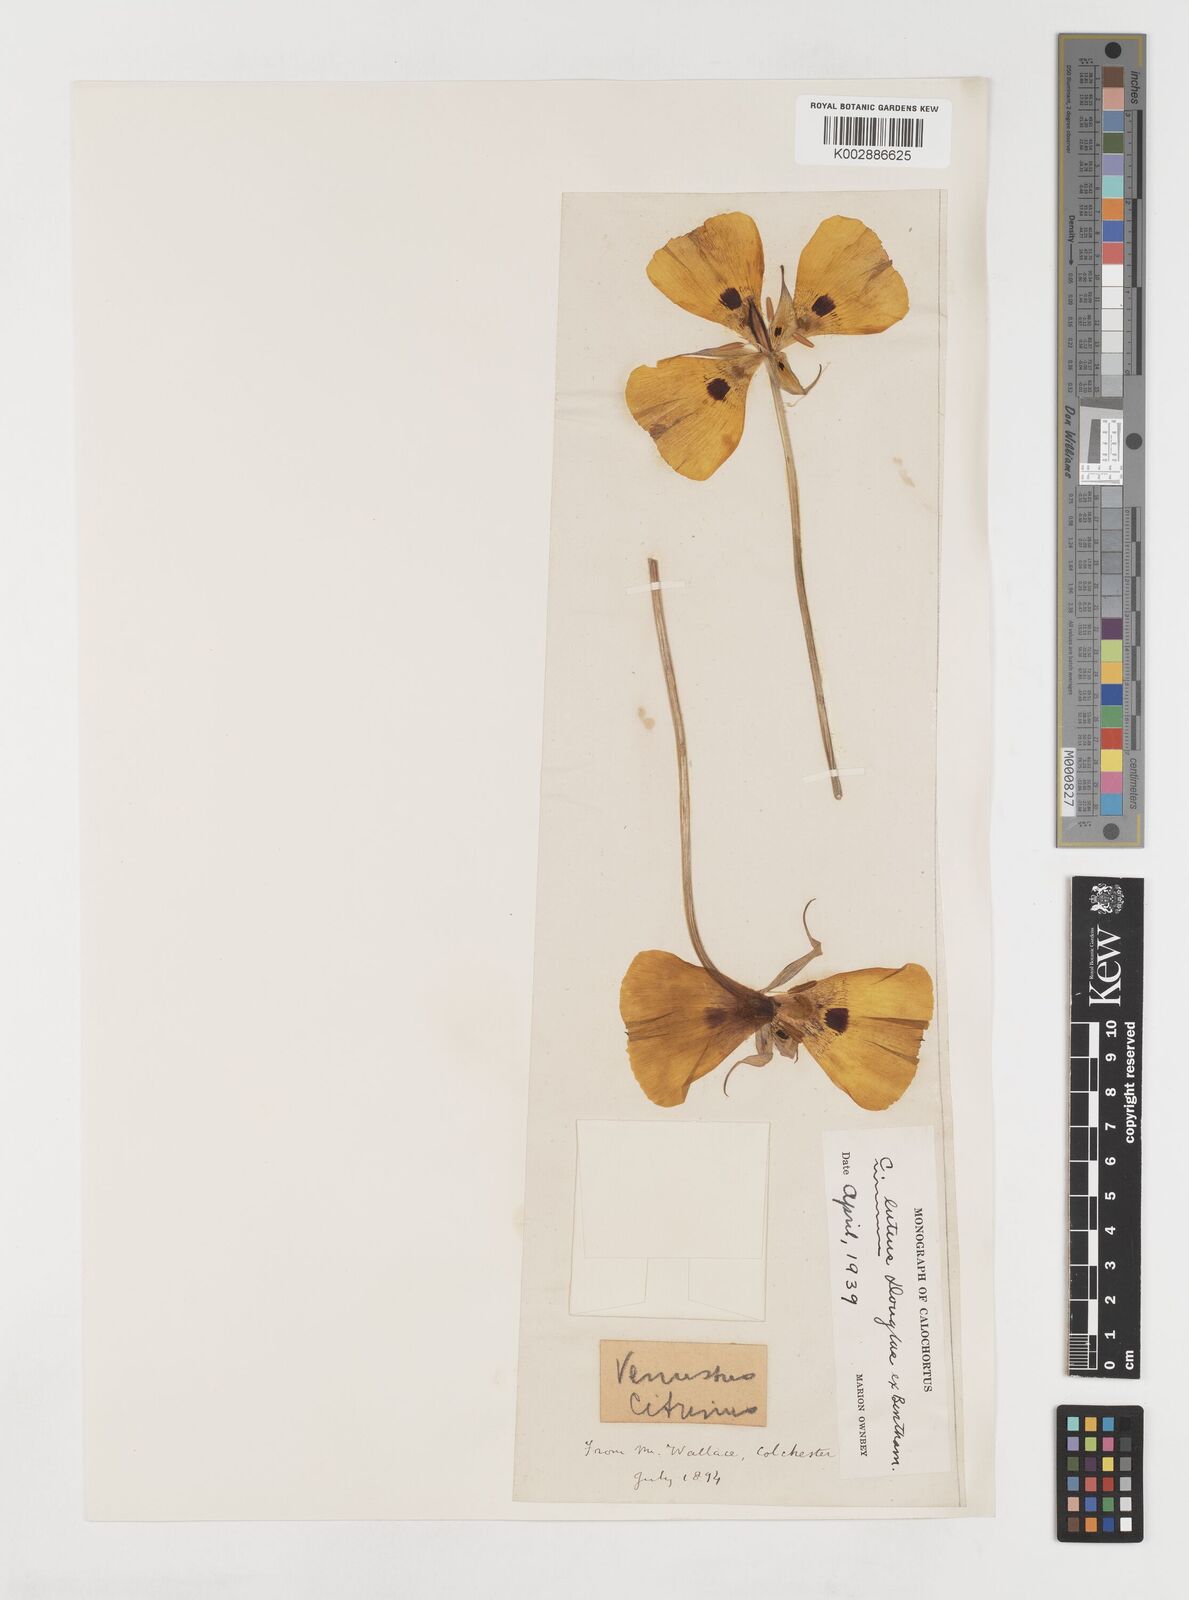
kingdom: Plantae
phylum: Tracheophyta
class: Liliopsida
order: Liliales
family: Liliaceae
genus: Calochortus
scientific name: Calochortus nuttallii
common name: Sego-lily
